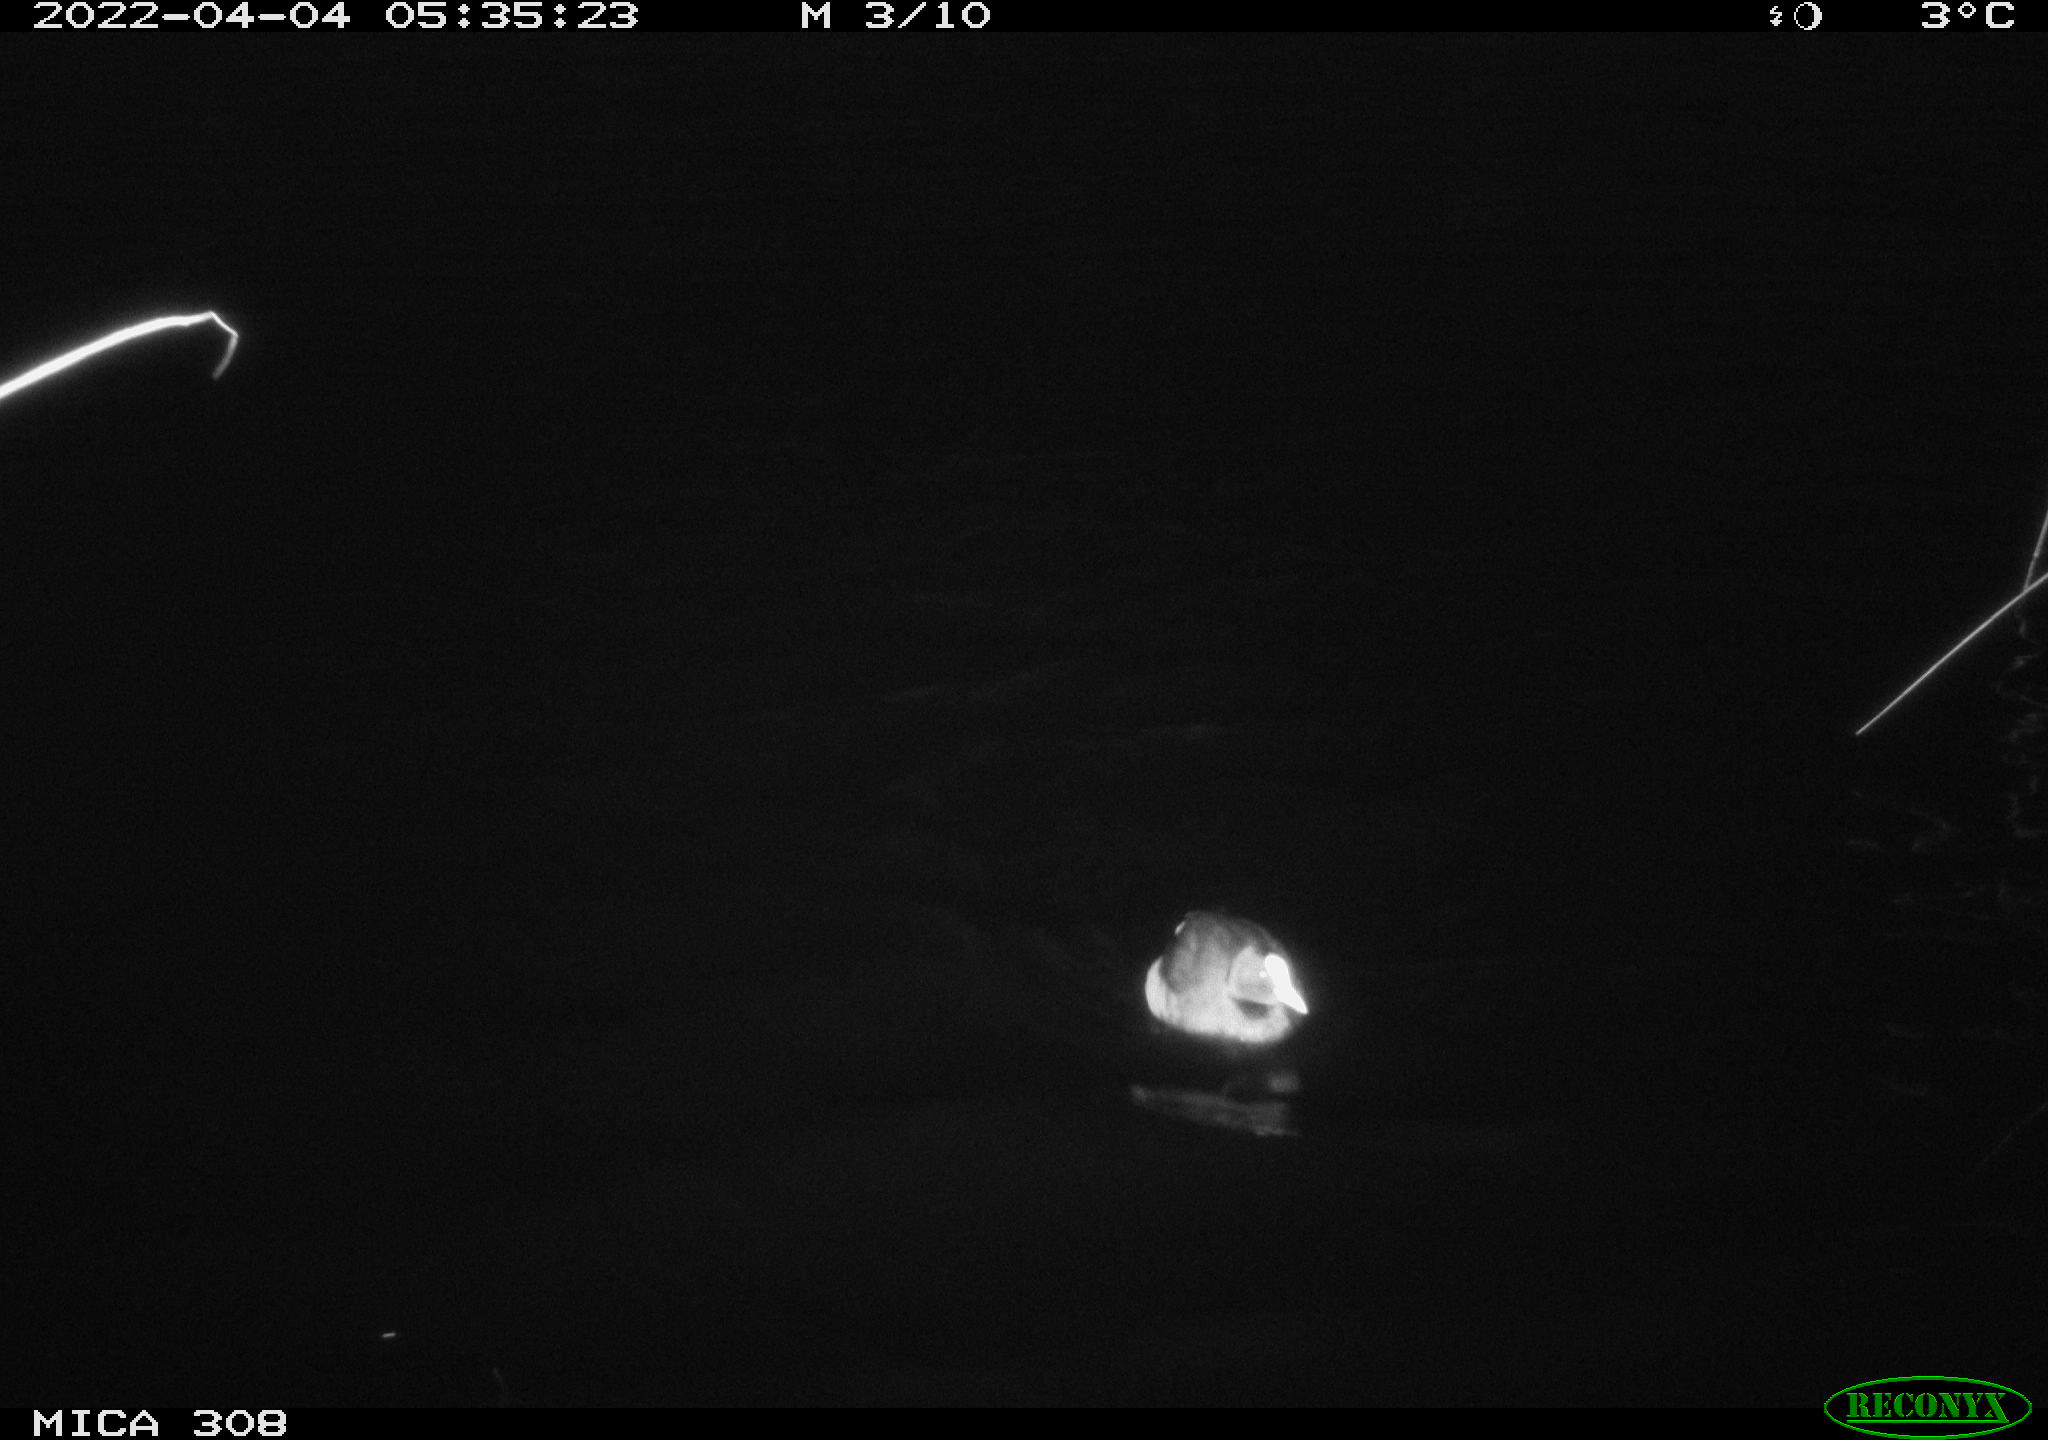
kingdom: Animalia
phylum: Chordata
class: Aves
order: Gruiformes
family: Rallidae
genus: Fulica
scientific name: Fulica atra
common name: Eurasian coot
